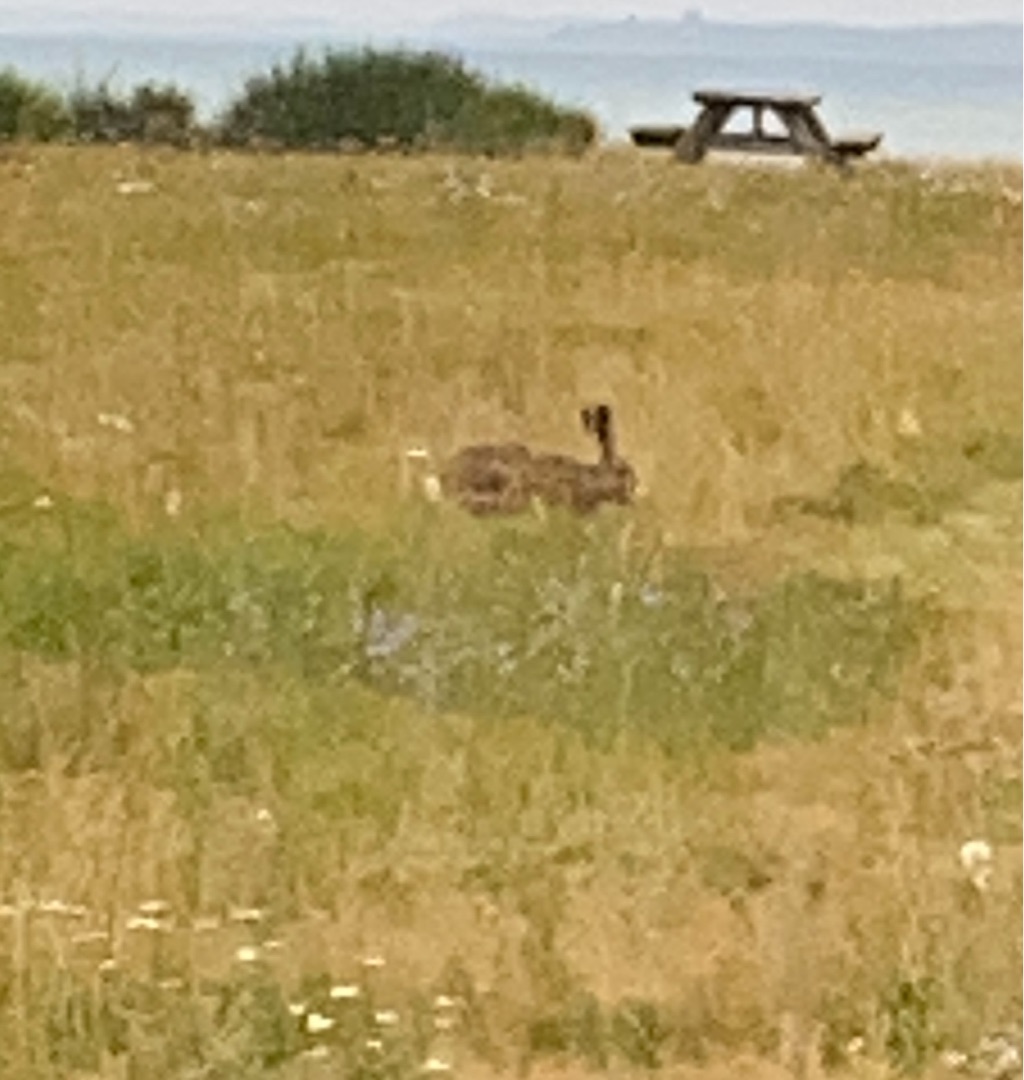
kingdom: Animalia
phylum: Chordata
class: Mammalia
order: Lagomorpha
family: Leporidae
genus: Lepus
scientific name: Lepus europaeus
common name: Hare
